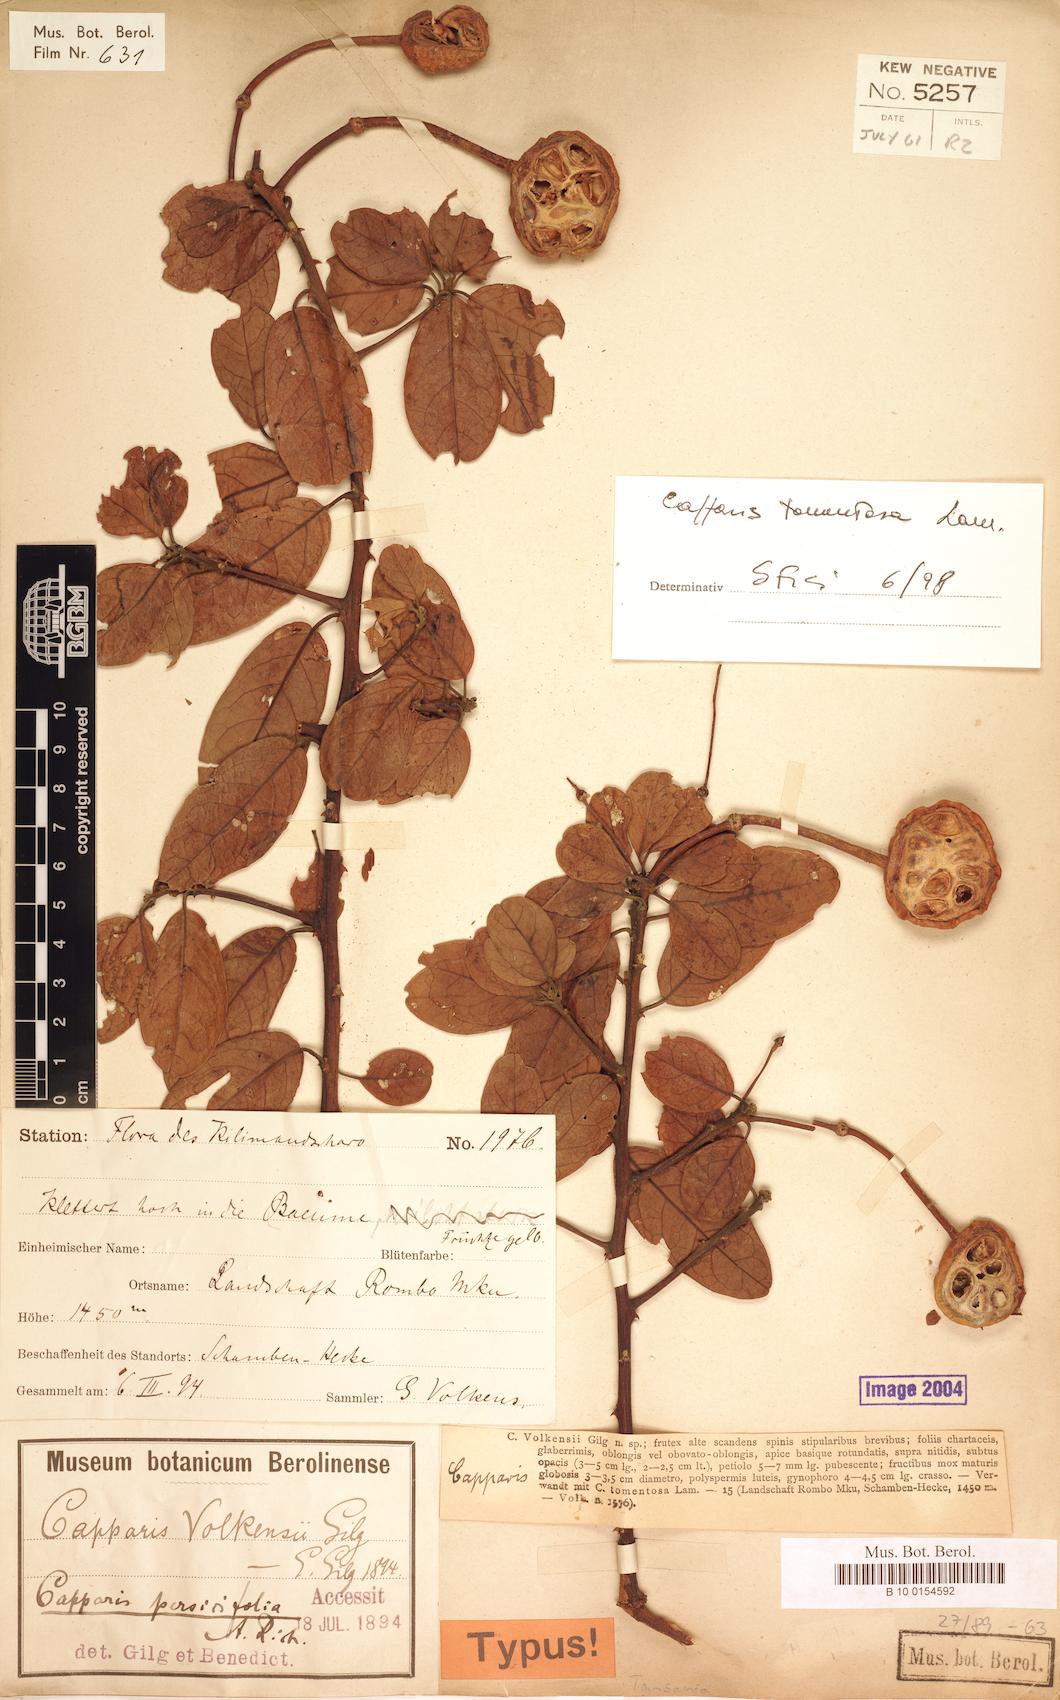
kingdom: Plantae
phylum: Tracheophyta
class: Magnoliopsida
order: Brassicales
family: Capparaceae
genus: Capparis
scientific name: Capparis tomentosa
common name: African caper
